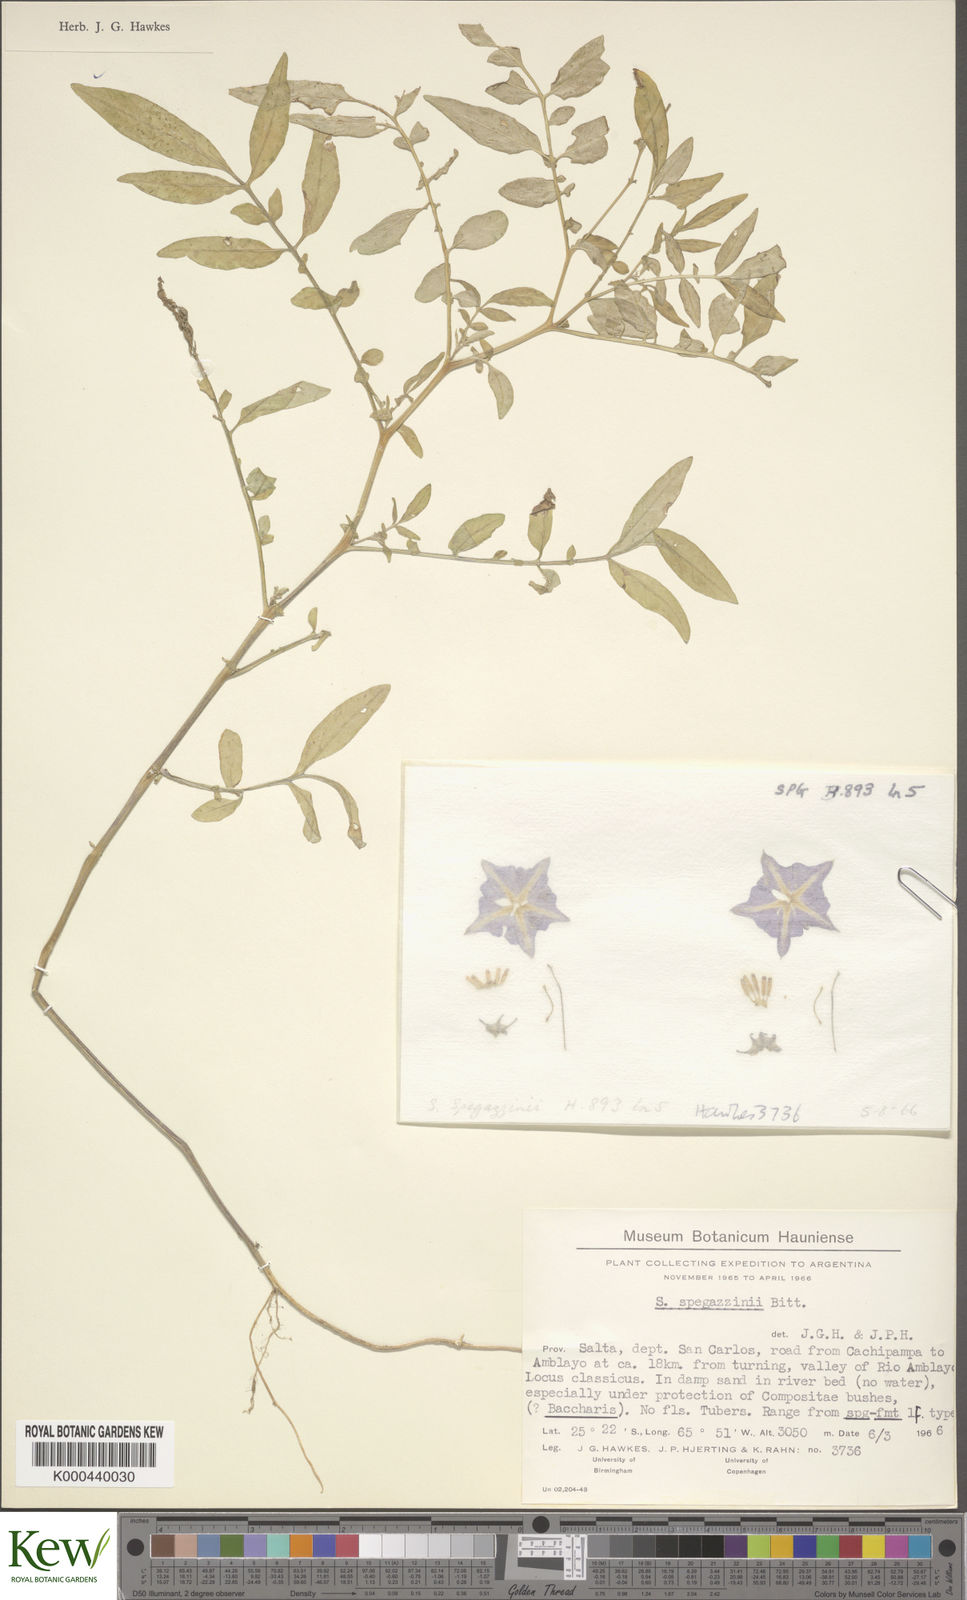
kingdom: Plantae
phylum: Tracheophyta
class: Magnoliopsida
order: Solanales
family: Solanaceae
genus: Solanum
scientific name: Solanum brevicaule
